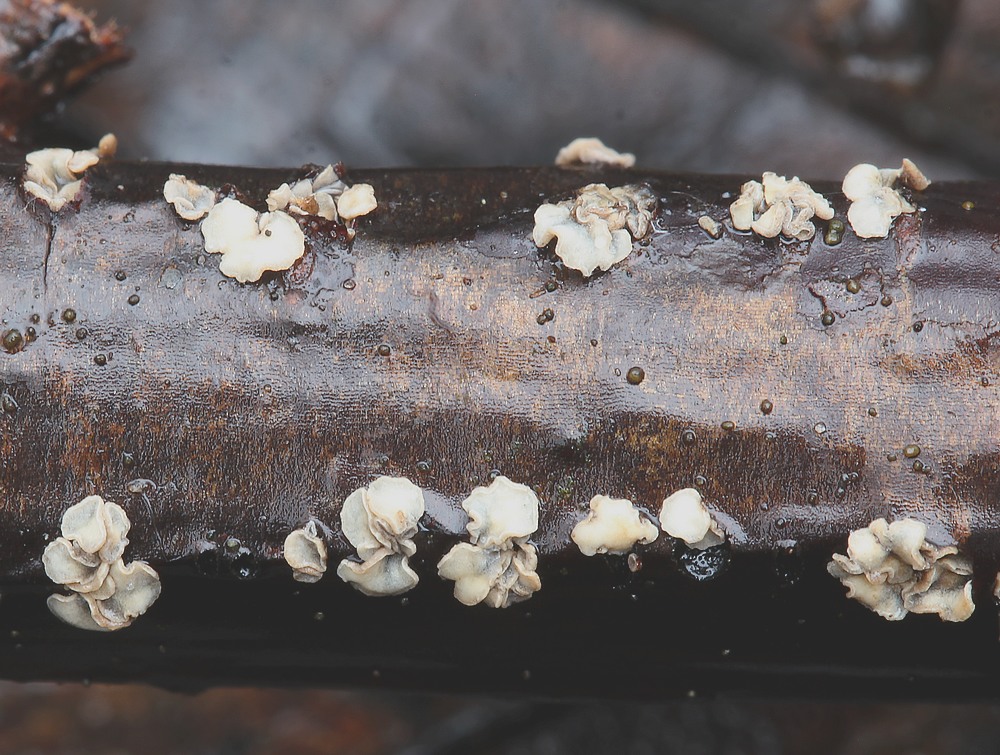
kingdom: Fungi
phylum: Ascomycota
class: Leotiomycetes
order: Helotiales
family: Mollisiaceae
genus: Mollisia
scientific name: Mollisia
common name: gråskive
